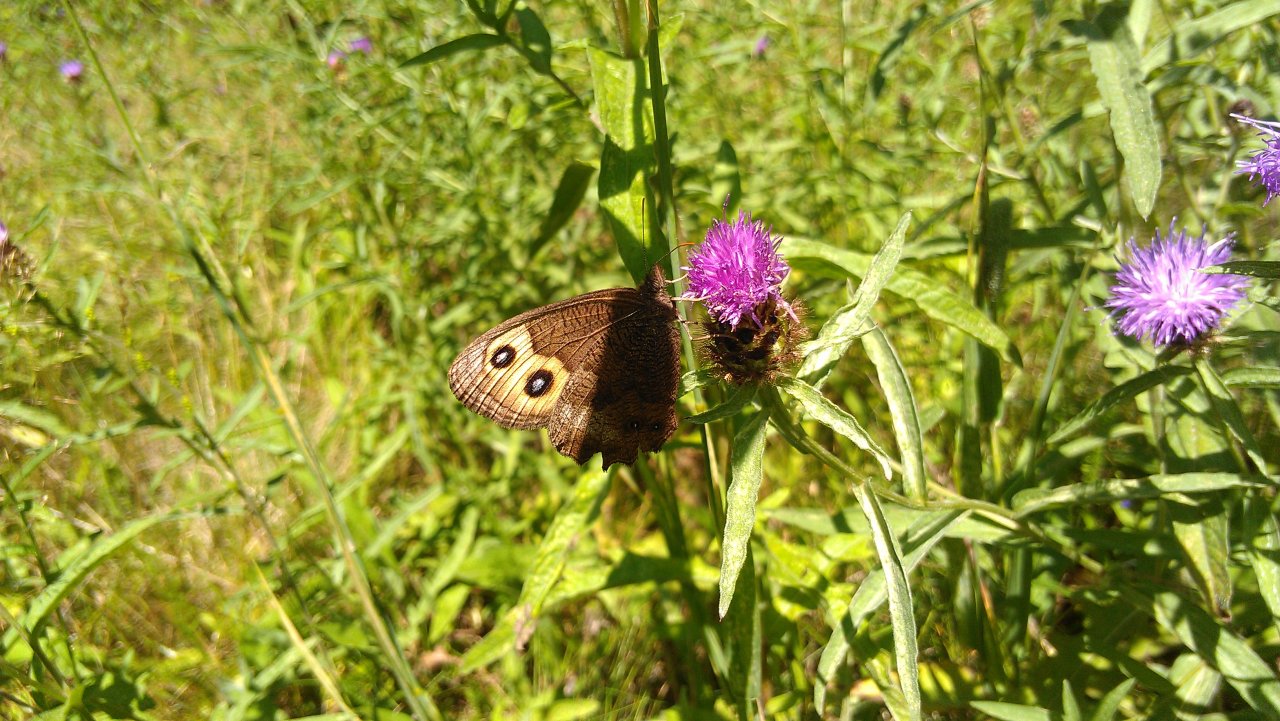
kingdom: Animalia
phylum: Arthropoda
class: Insecta
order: Lepidoptera
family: Nymphalidae
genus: Cercyonis
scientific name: Cercyonis pegala
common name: Common Wood-Nymph
